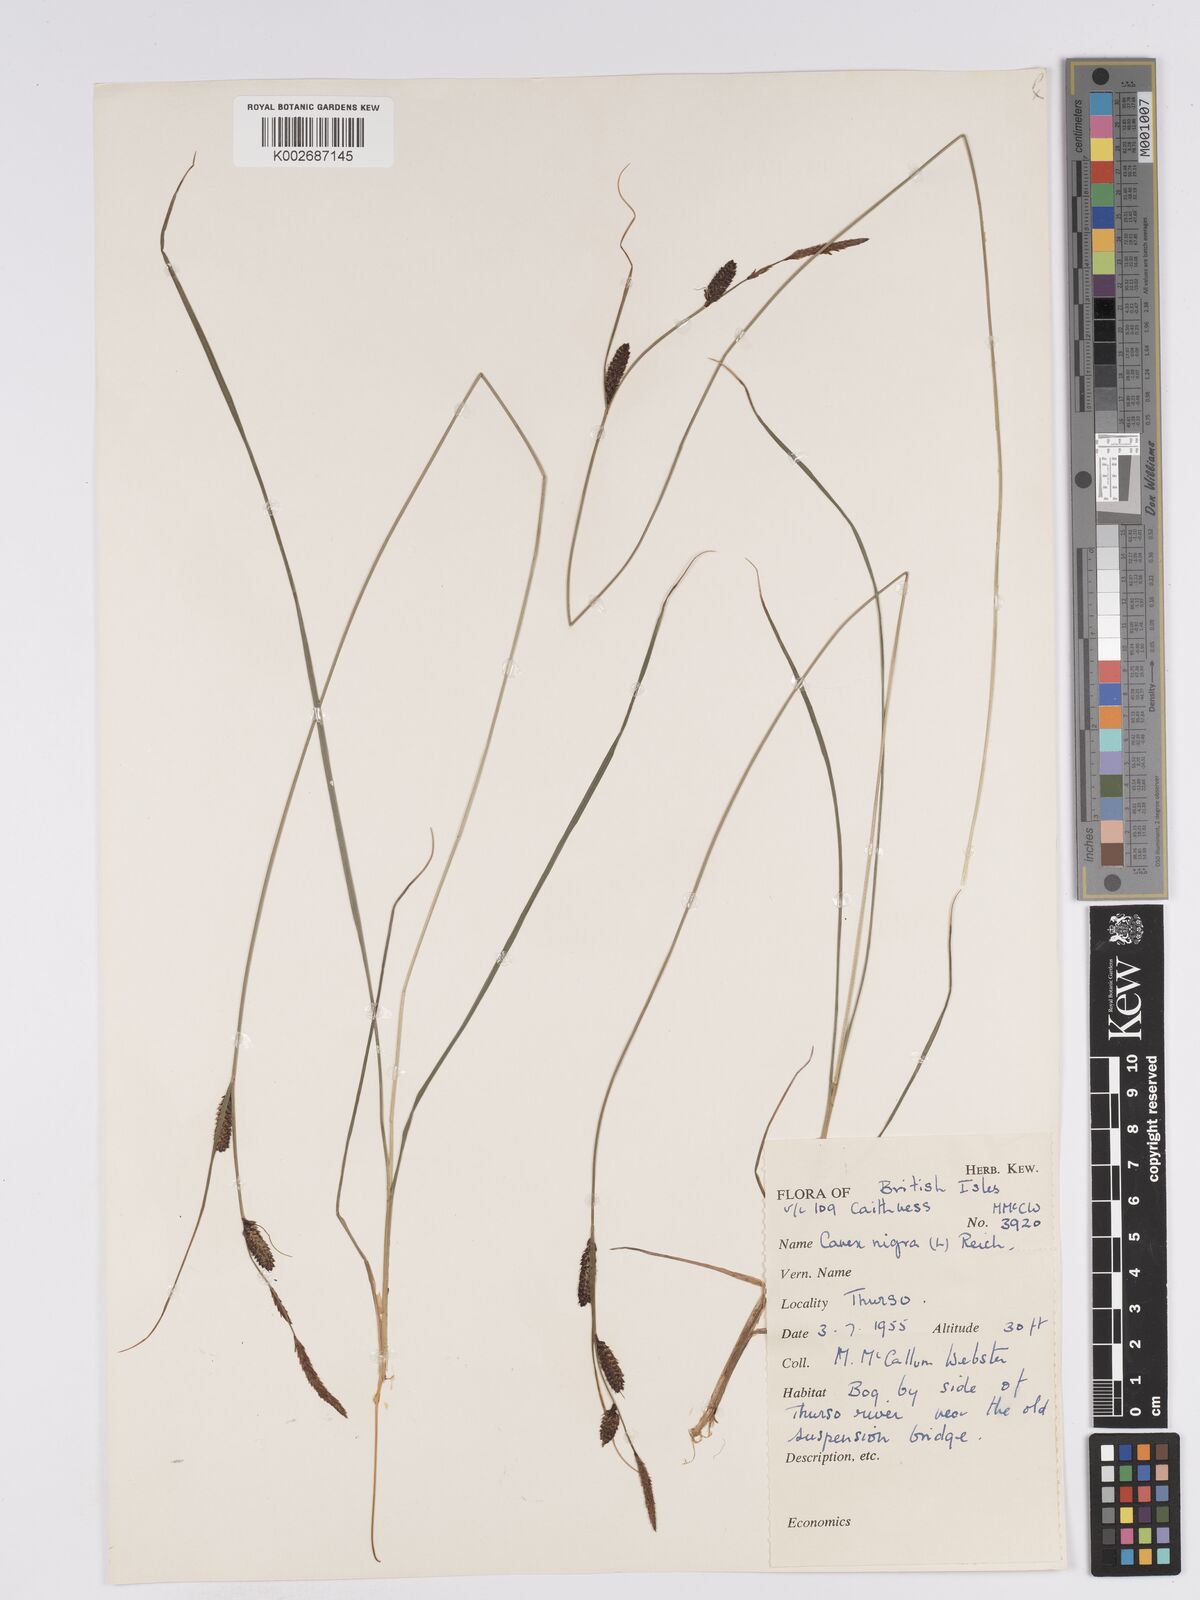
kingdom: Plantae
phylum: Tracheophyta
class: Liliopsida
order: Poales
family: Cyperaceae
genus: Carex
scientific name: Carex nigra
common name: Common sedge
